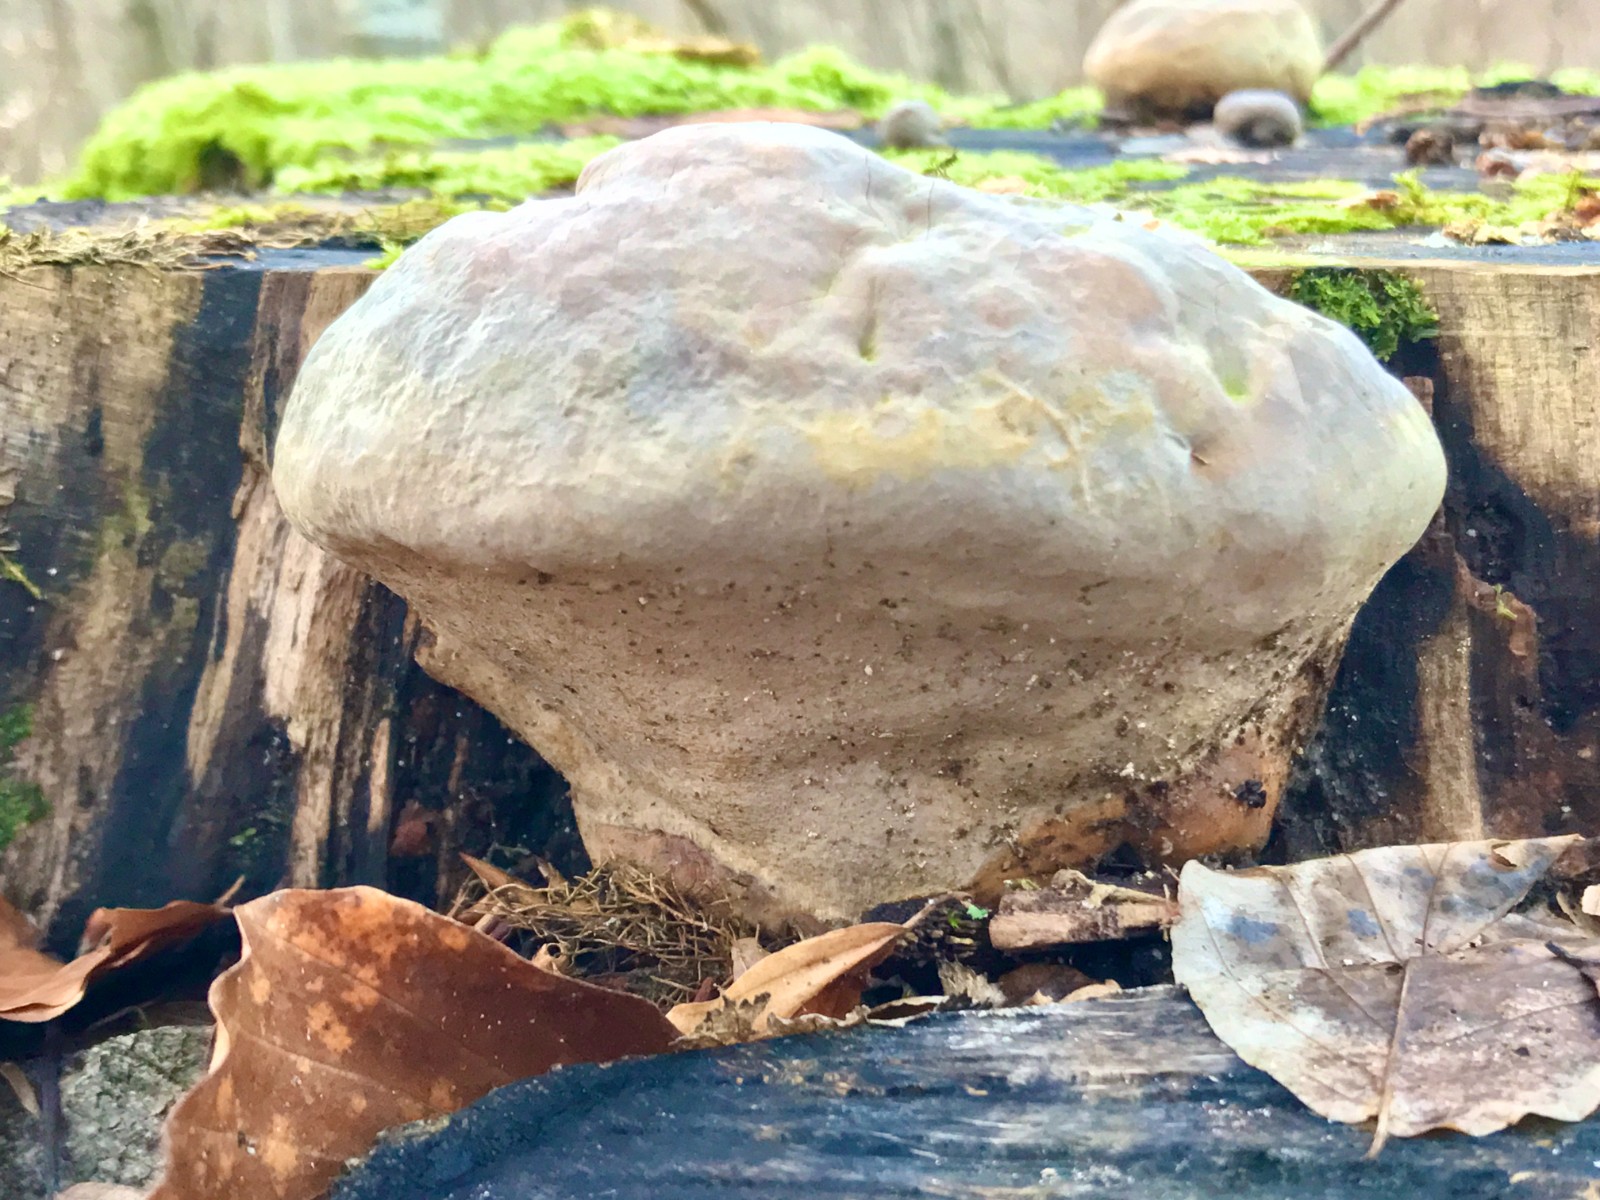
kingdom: Fungi
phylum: Basidiomycota
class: Agaricomycetes
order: Polyporales
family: Polyporaceae
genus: Ganoderma
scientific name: Ganoderma pfeifferi
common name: kobberrød lakporesvamp
